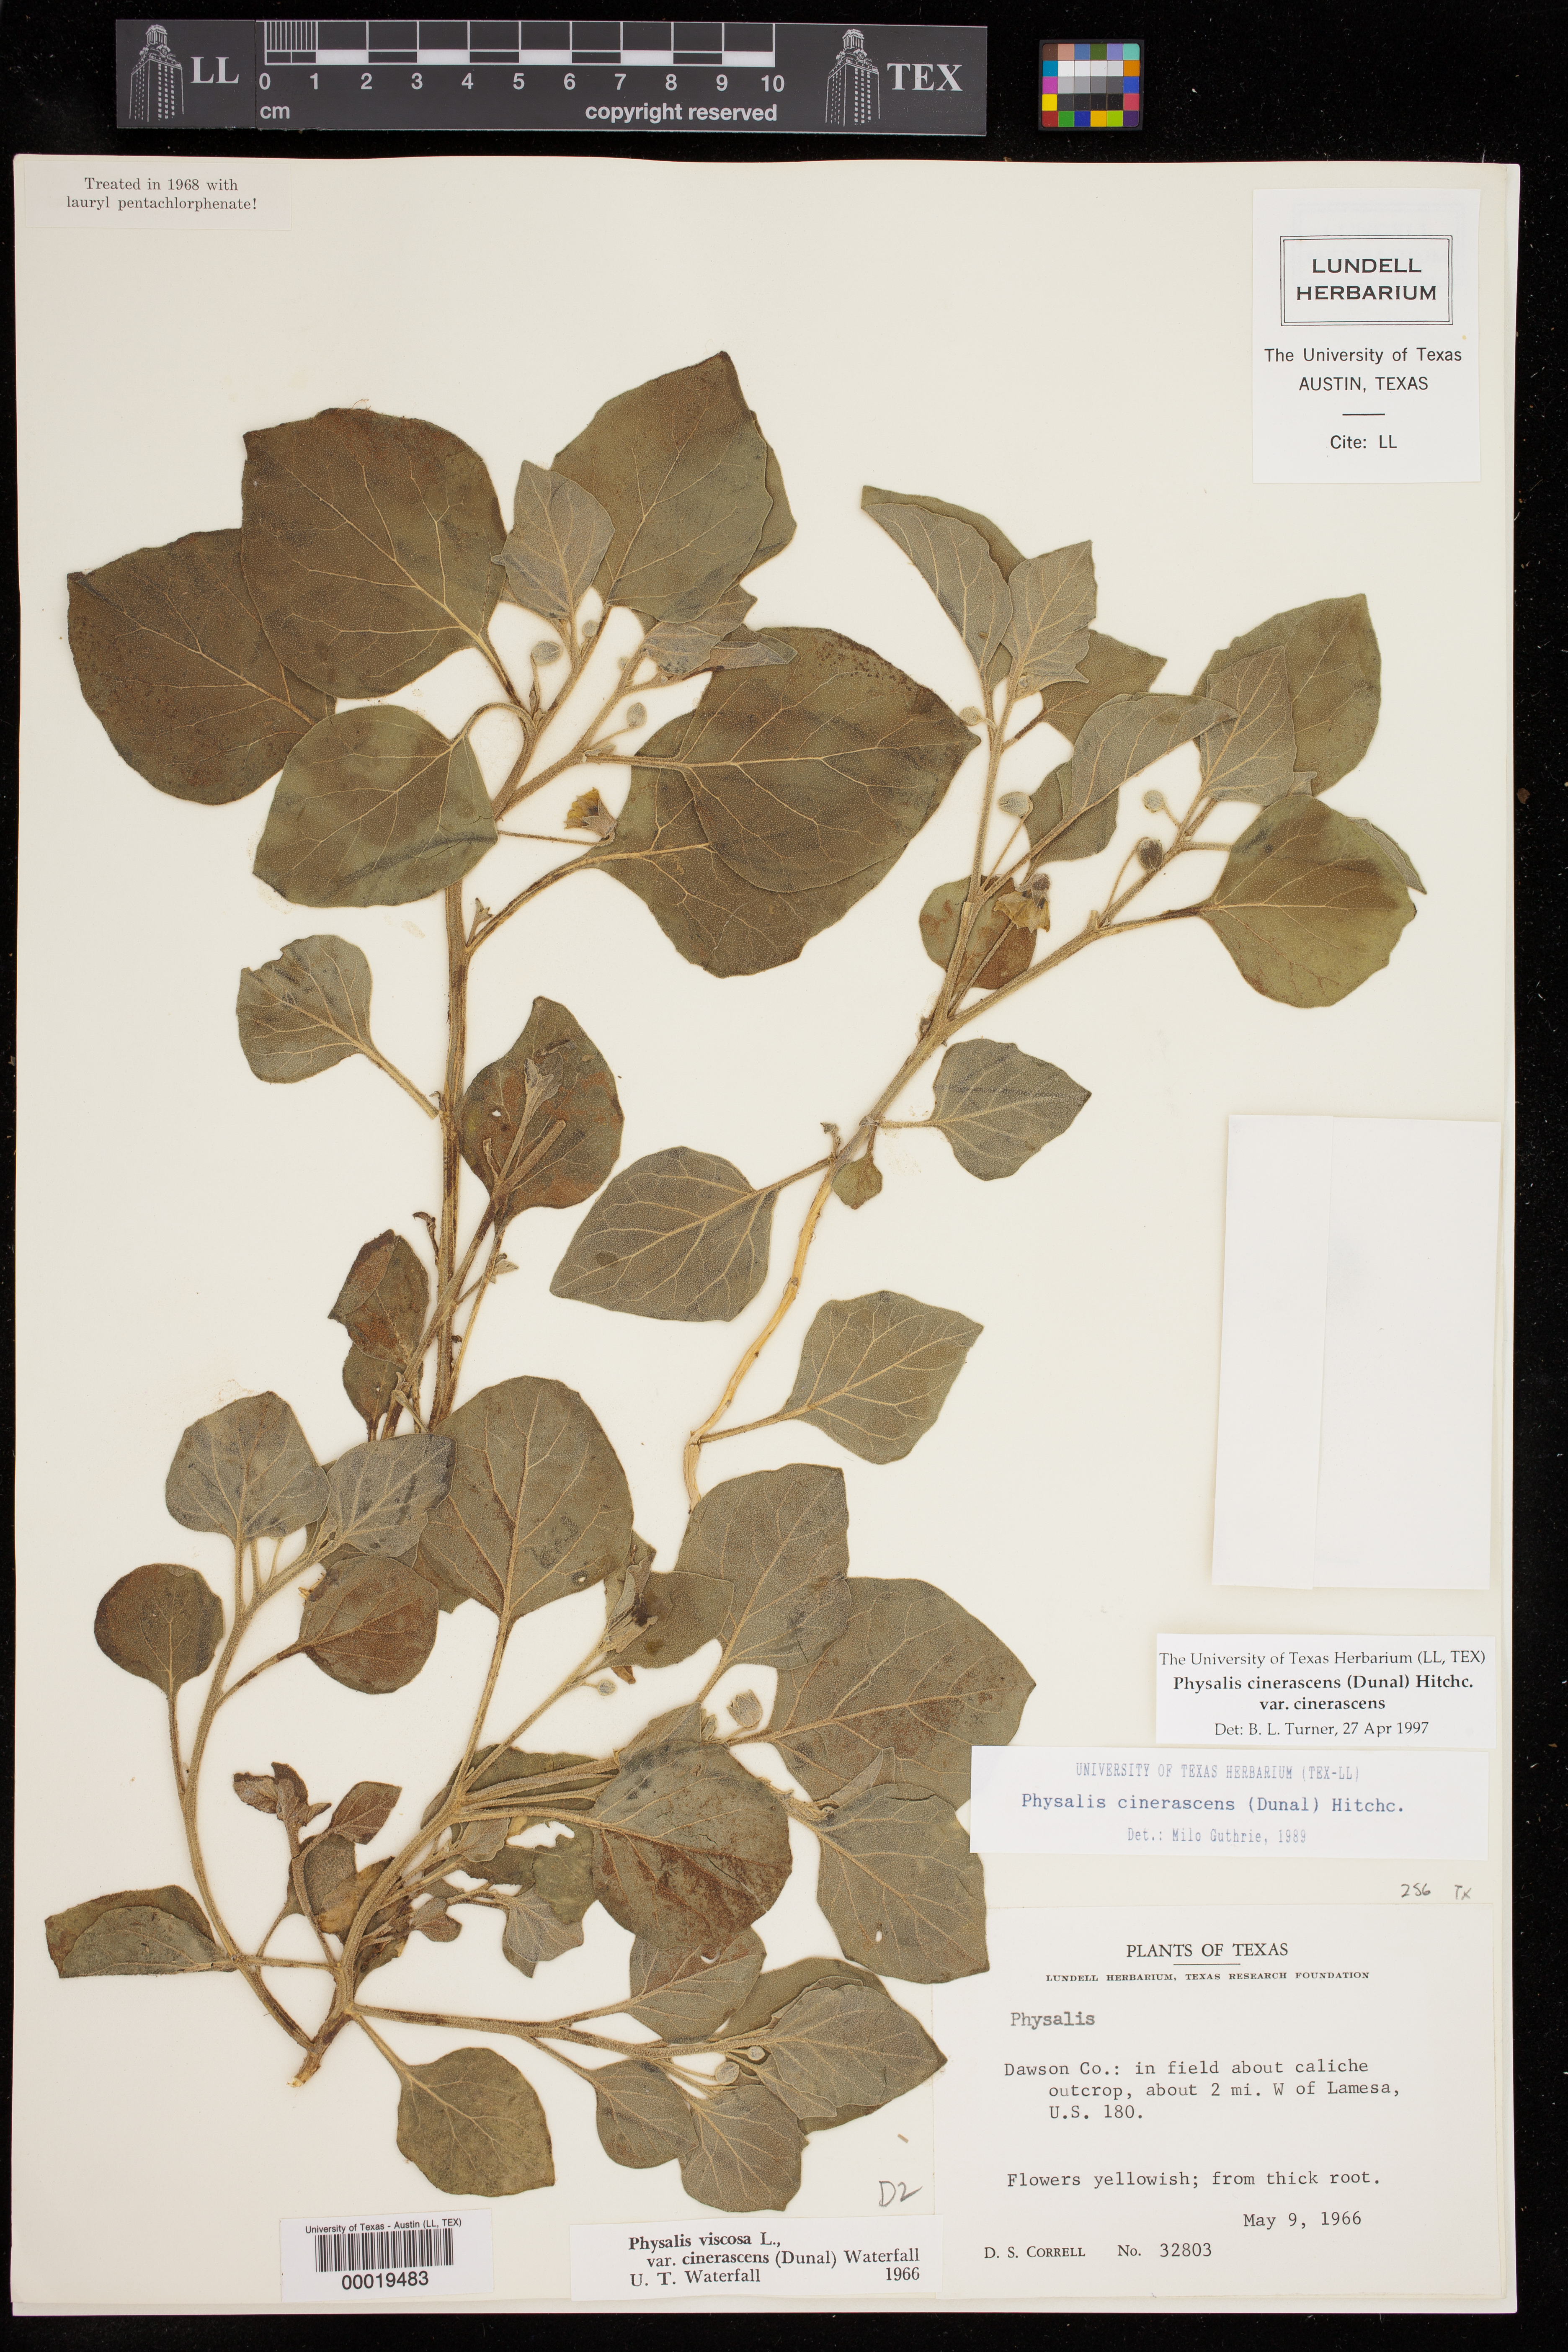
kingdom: Plantae
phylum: Tracheophyta
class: Magnoliopsida
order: Solanales
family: Solanaceae
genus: Physalis
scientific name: Physalis cinerascens
